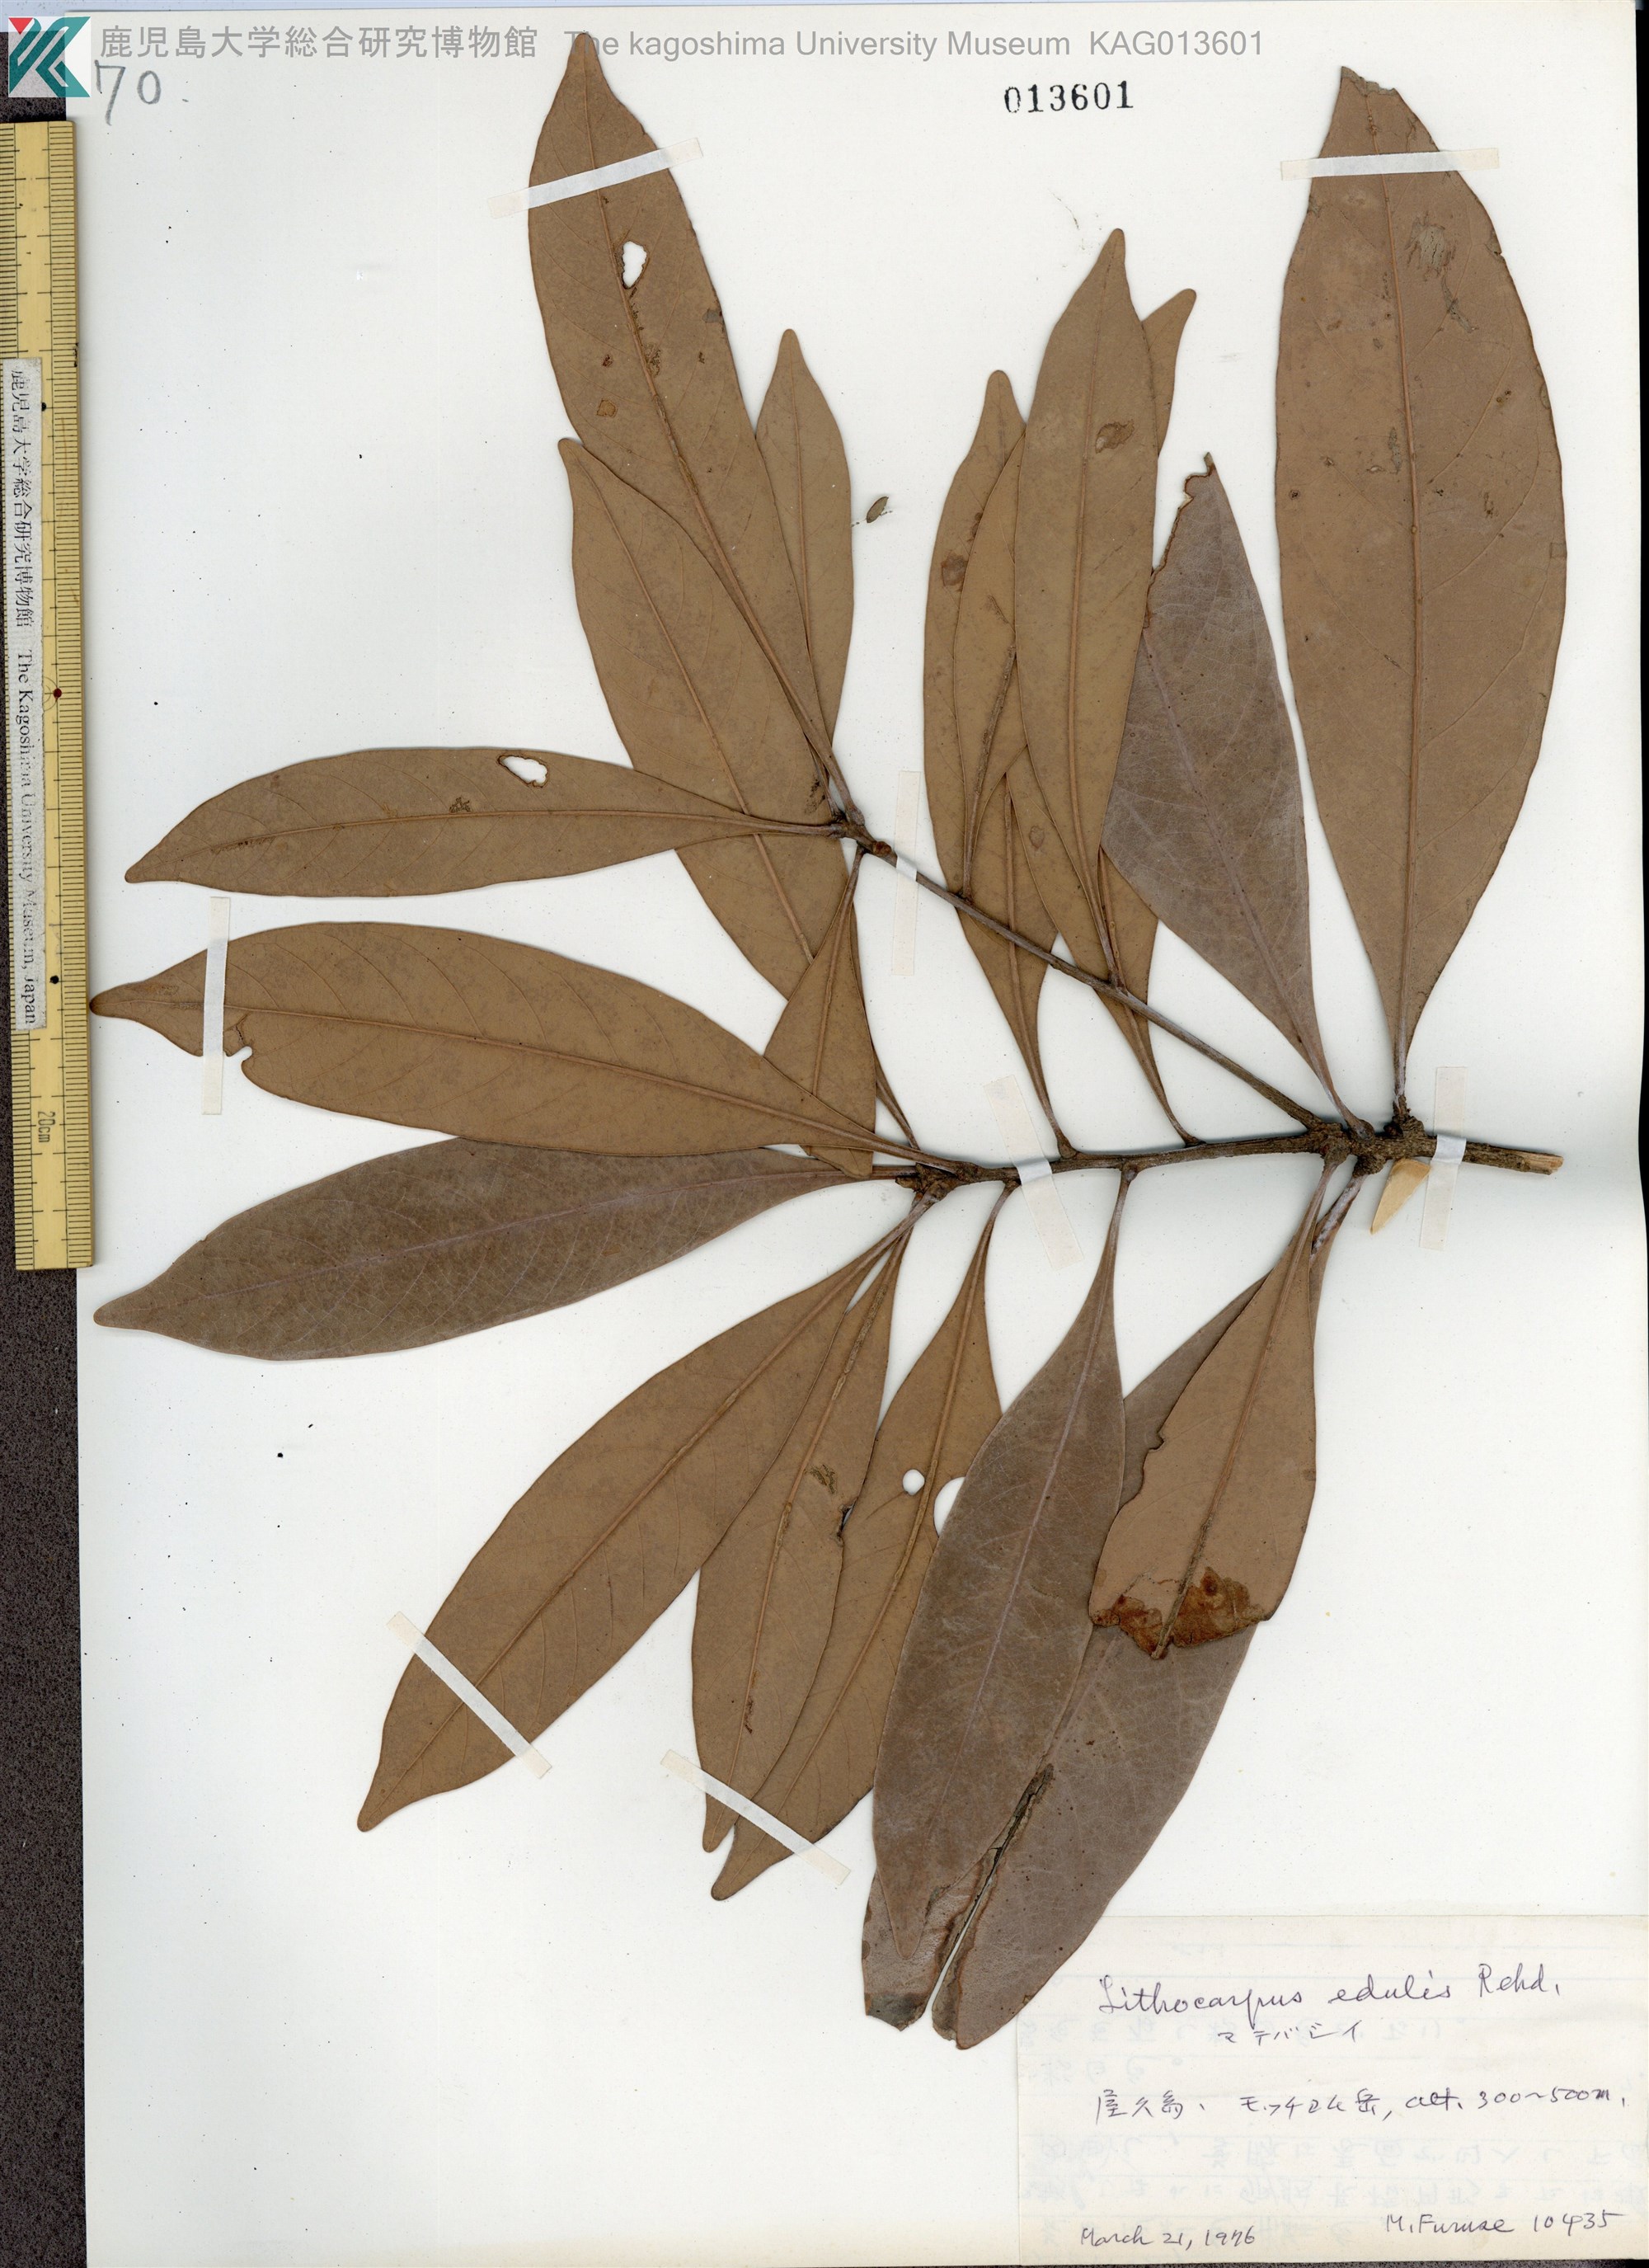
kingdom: Plantae
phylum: Tracheophyta
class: Magnoliopsida
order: Fagales
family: Fagaceae
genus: Lithocarpus
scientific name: Lithocarpus edulis
